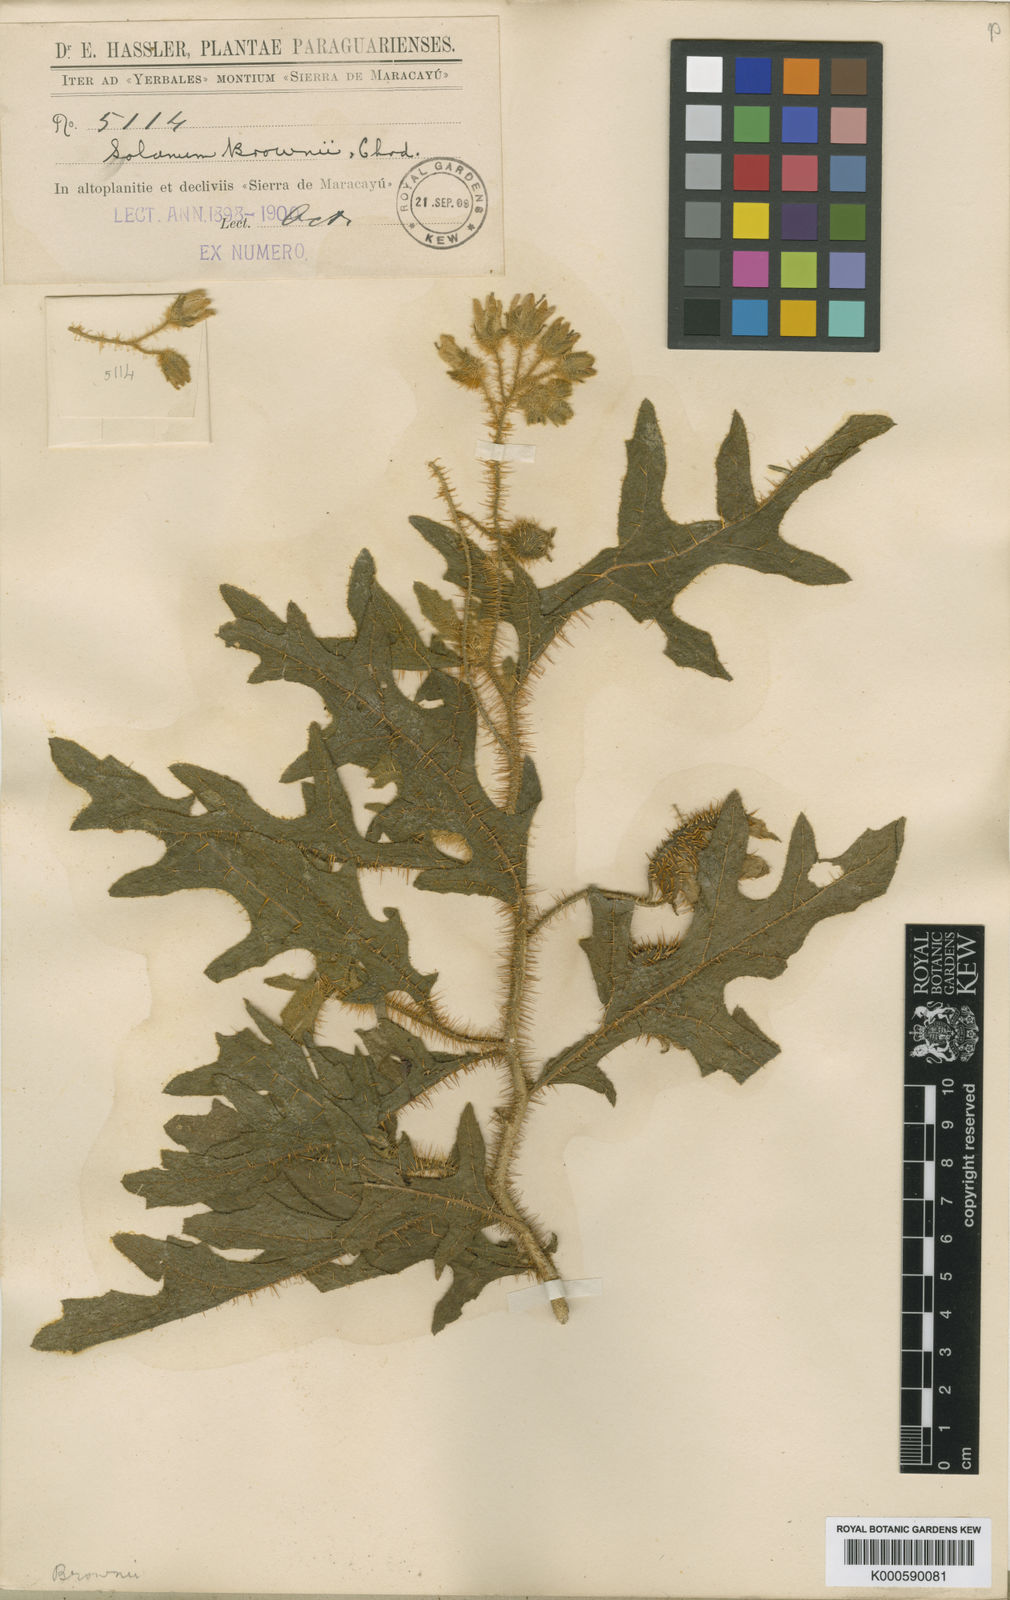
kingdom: Plantae
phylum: Tracheophyta
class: Magnoliopsida
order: Solanales
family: Solanaceae
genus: Solanum
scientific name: Solanum hasslerianum
